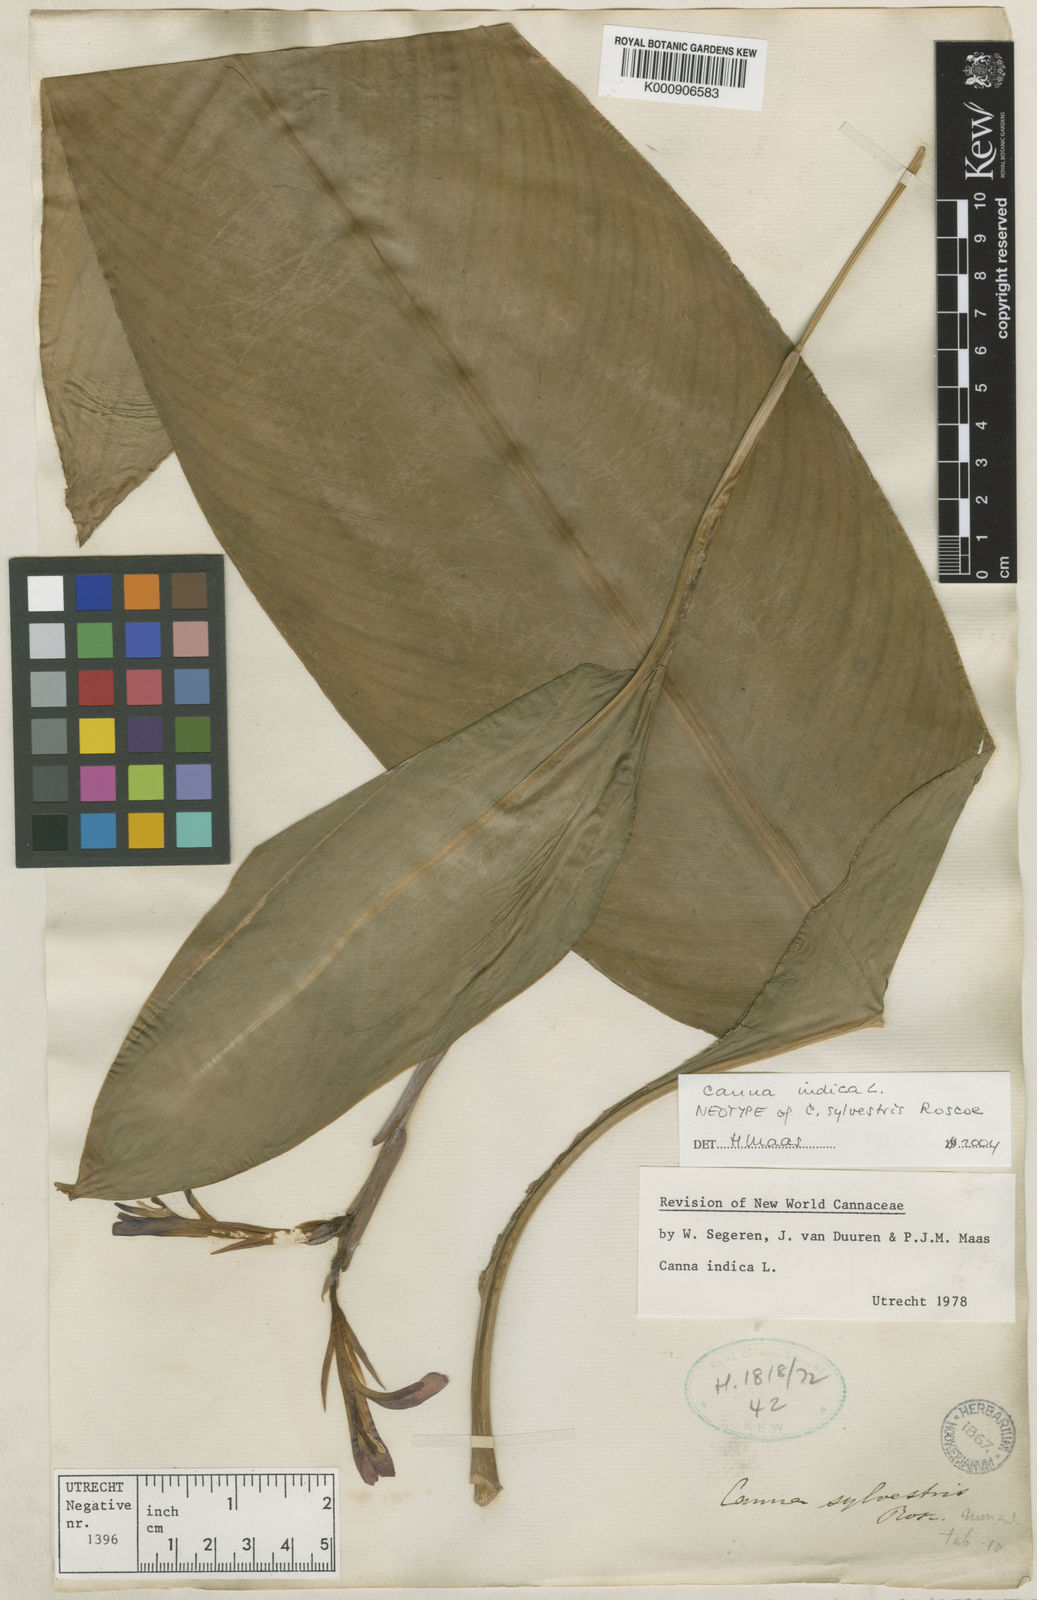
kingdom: Plantae
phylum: Tracheophyta
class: Liliopsida
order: Zingiberales
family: Cannaceae
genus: Canna
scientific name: Canna indica
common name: Indian shot
